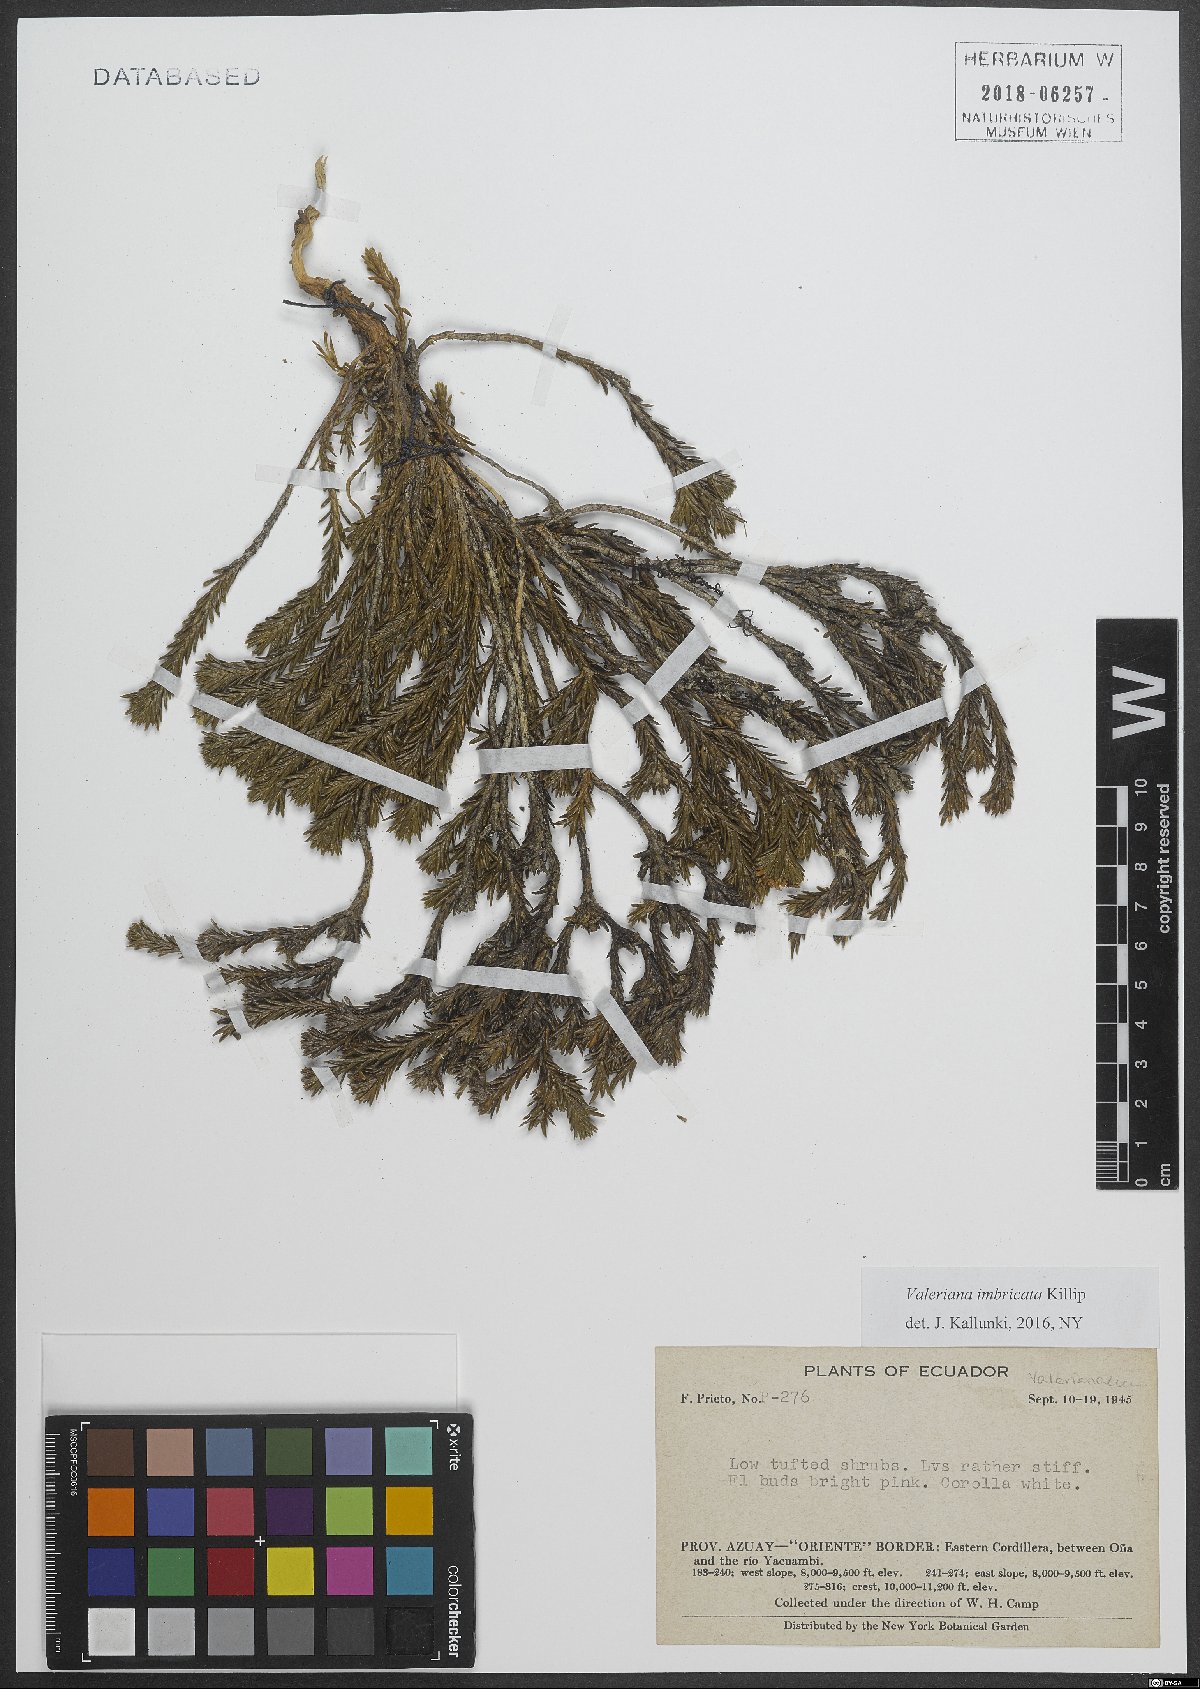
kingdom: Plantae
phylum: Tracheophyta
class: Magnoliopsida
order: Dipsacales
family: Caprifoliaceae
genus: Valeriana
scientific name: Valeriana
